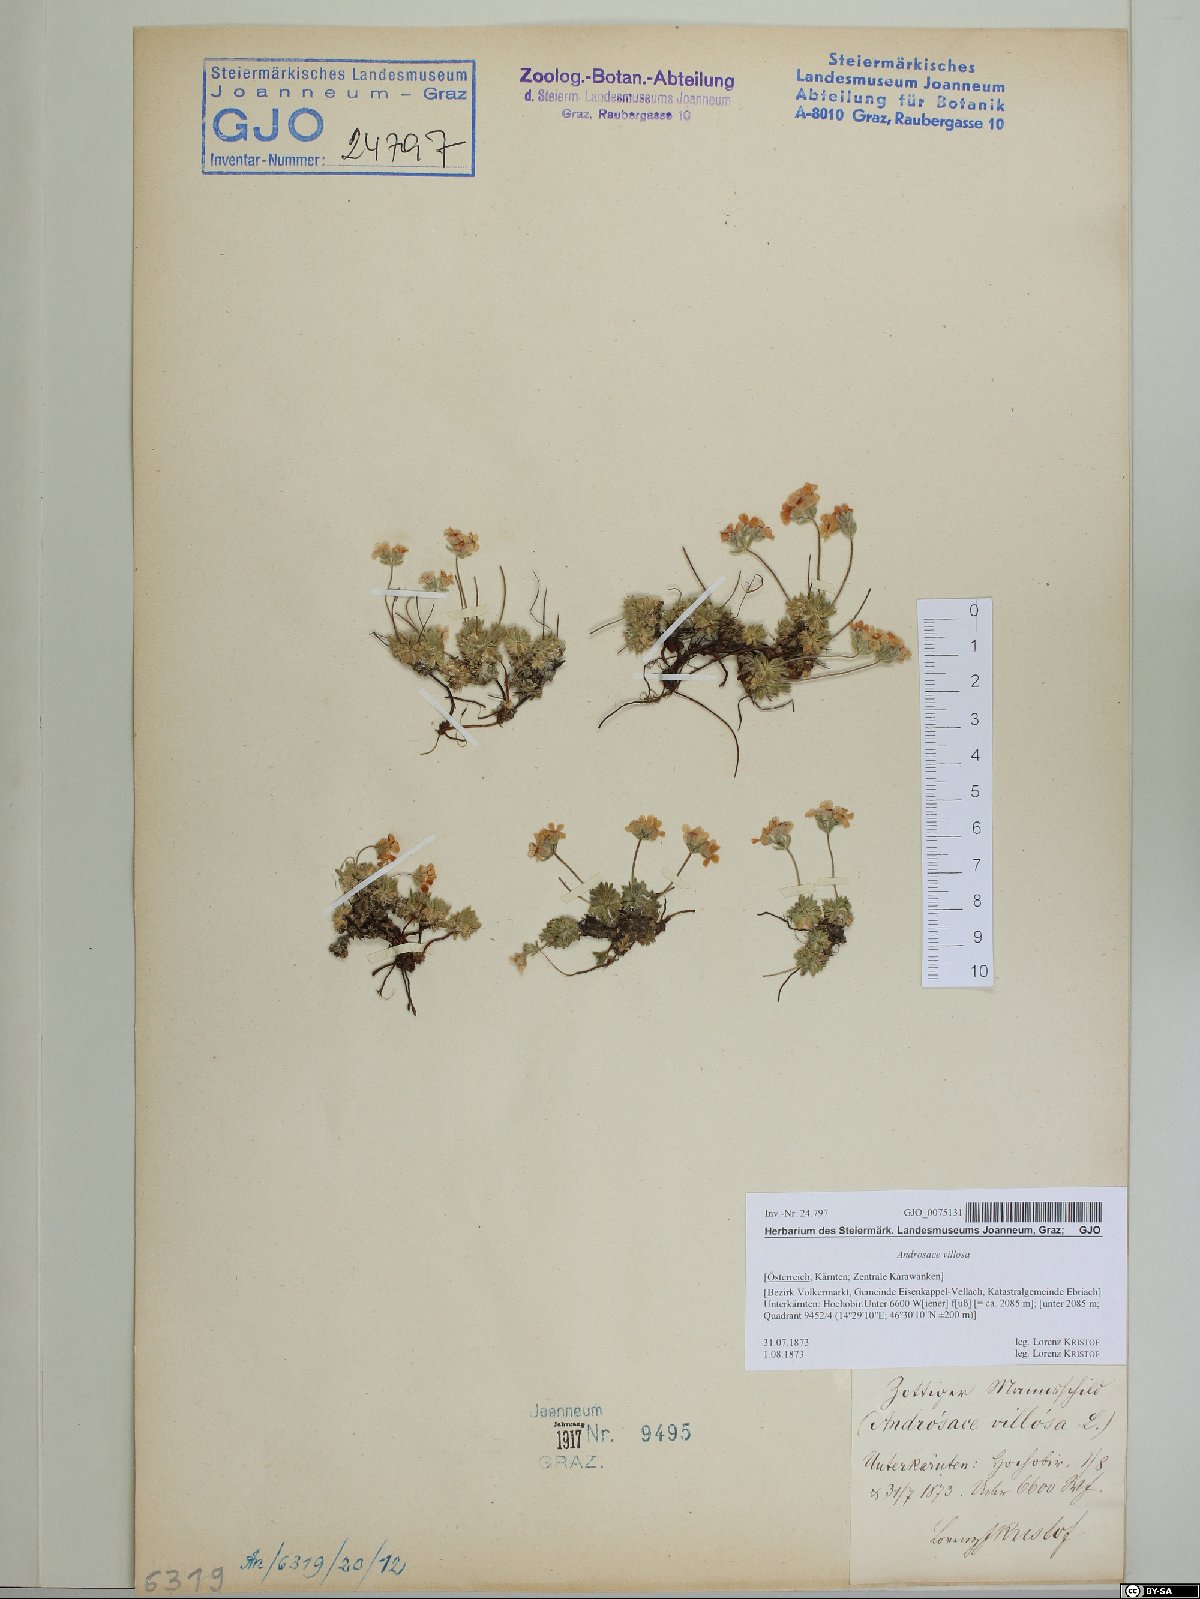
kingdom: Plantae
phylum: Tracheophyta
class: Magnoliopsida
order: Ericales
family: Primulaceae
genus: Androsace
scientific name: Androsace villosa
